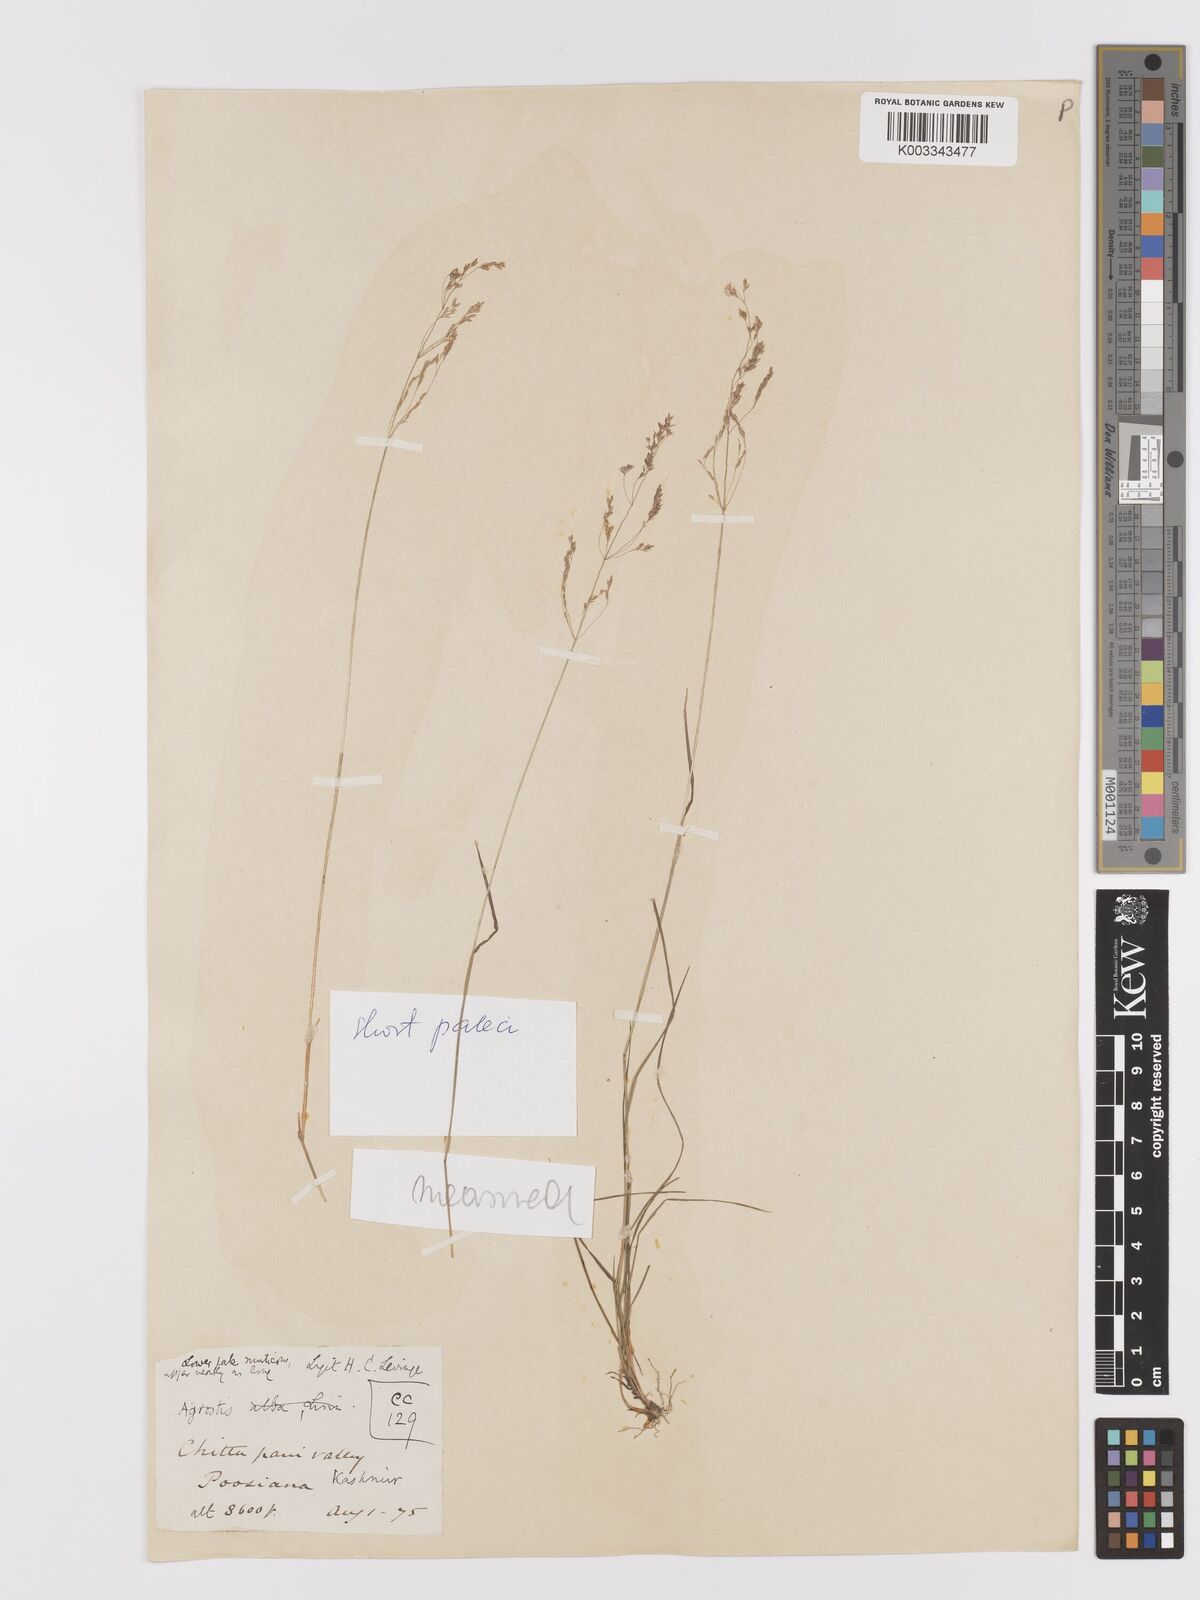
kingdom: Plantae
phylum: Tracheophyta
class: Liliopsida
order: Poales
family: Poaceae
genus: Agrostis
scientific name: Agrostis gigantea
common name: Black bent
